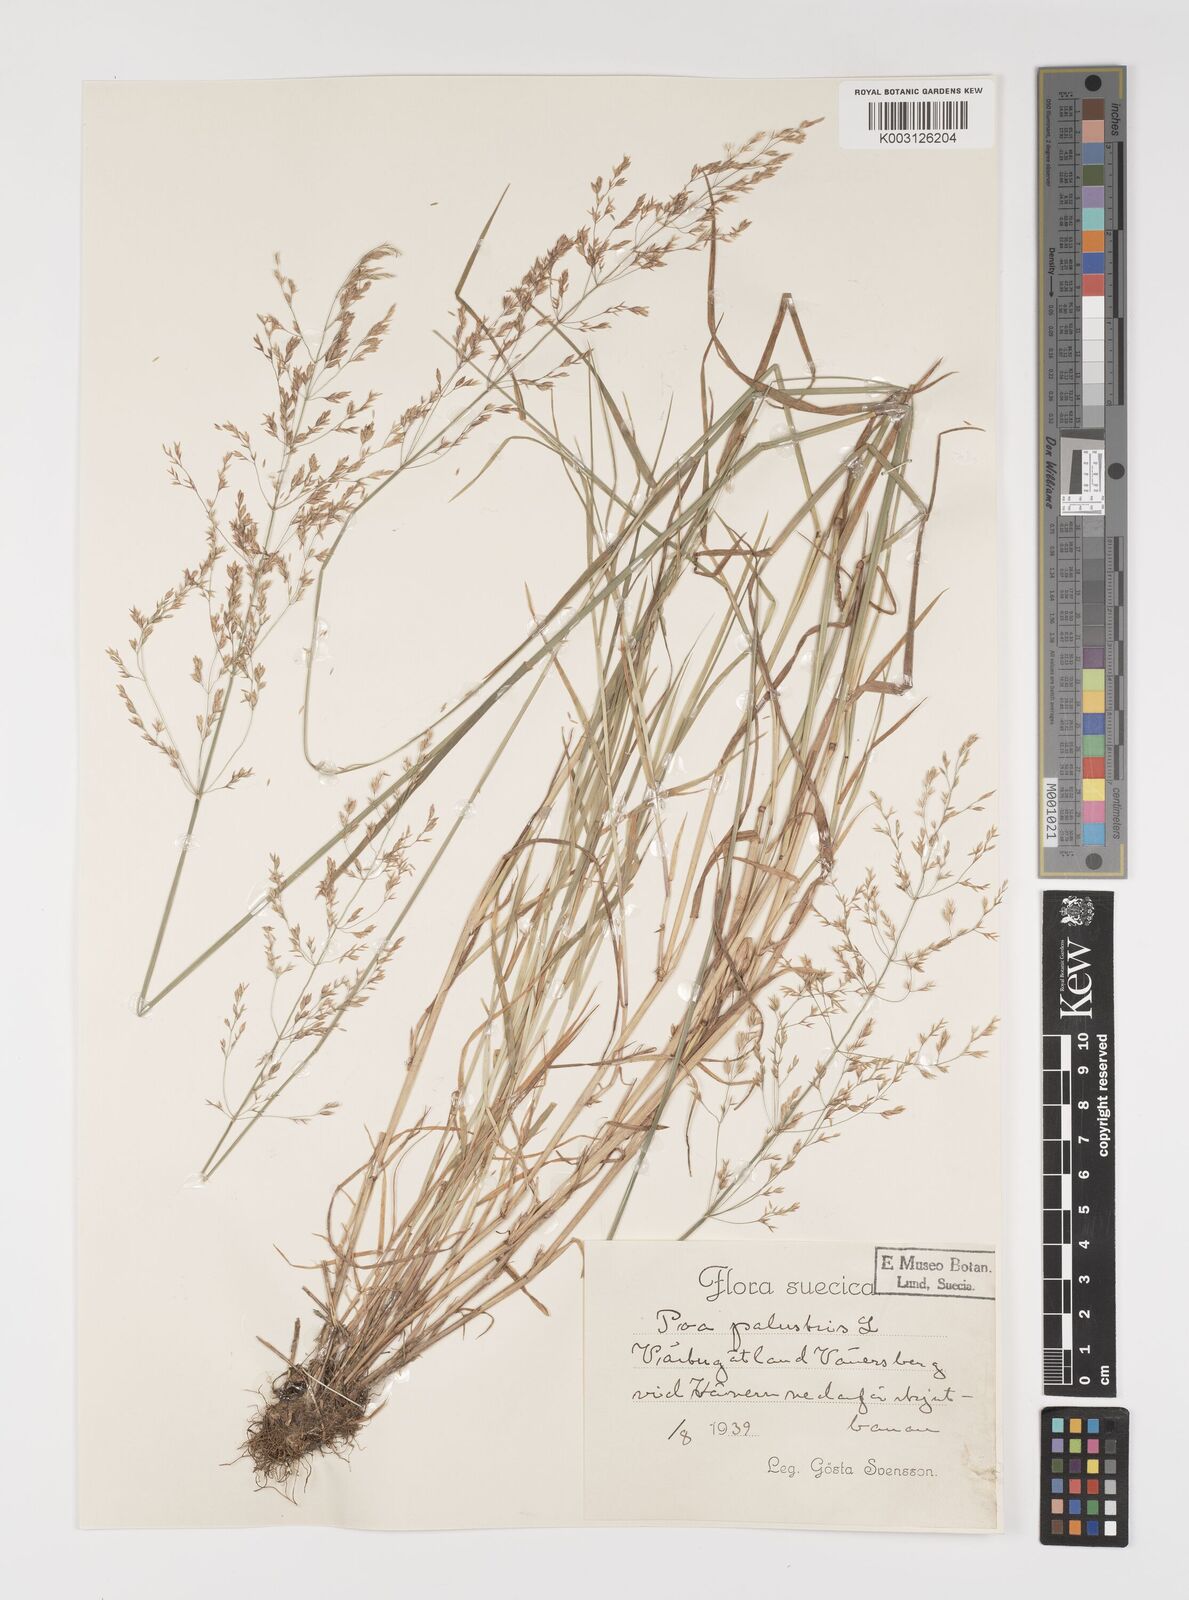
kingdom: Plantae
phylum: Tracheophyta
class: Liliopsida
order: Poales
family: Poaceae
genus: Poa
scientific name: Poa palustris
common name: Swamp meadow-grass
